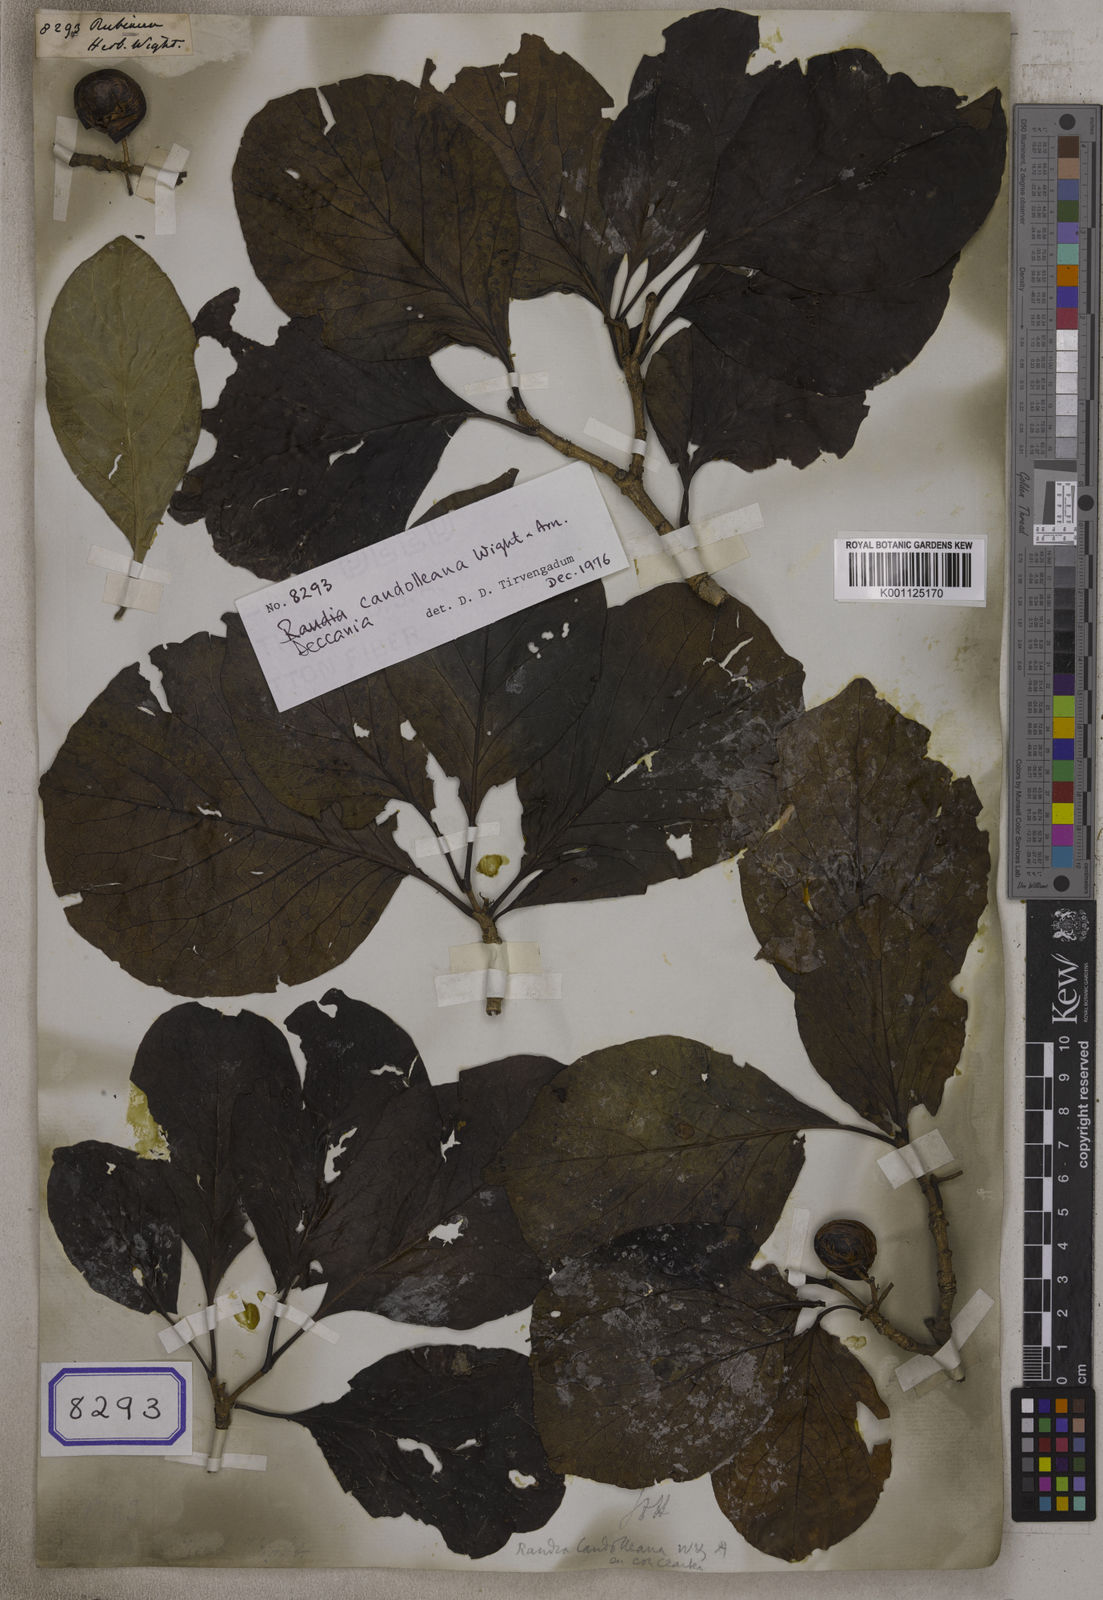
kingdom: Plantae
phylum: Tracheophyta
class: Magnoliopsida
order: Gentianales
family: Rubiaceae
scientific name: Rubiaceae
